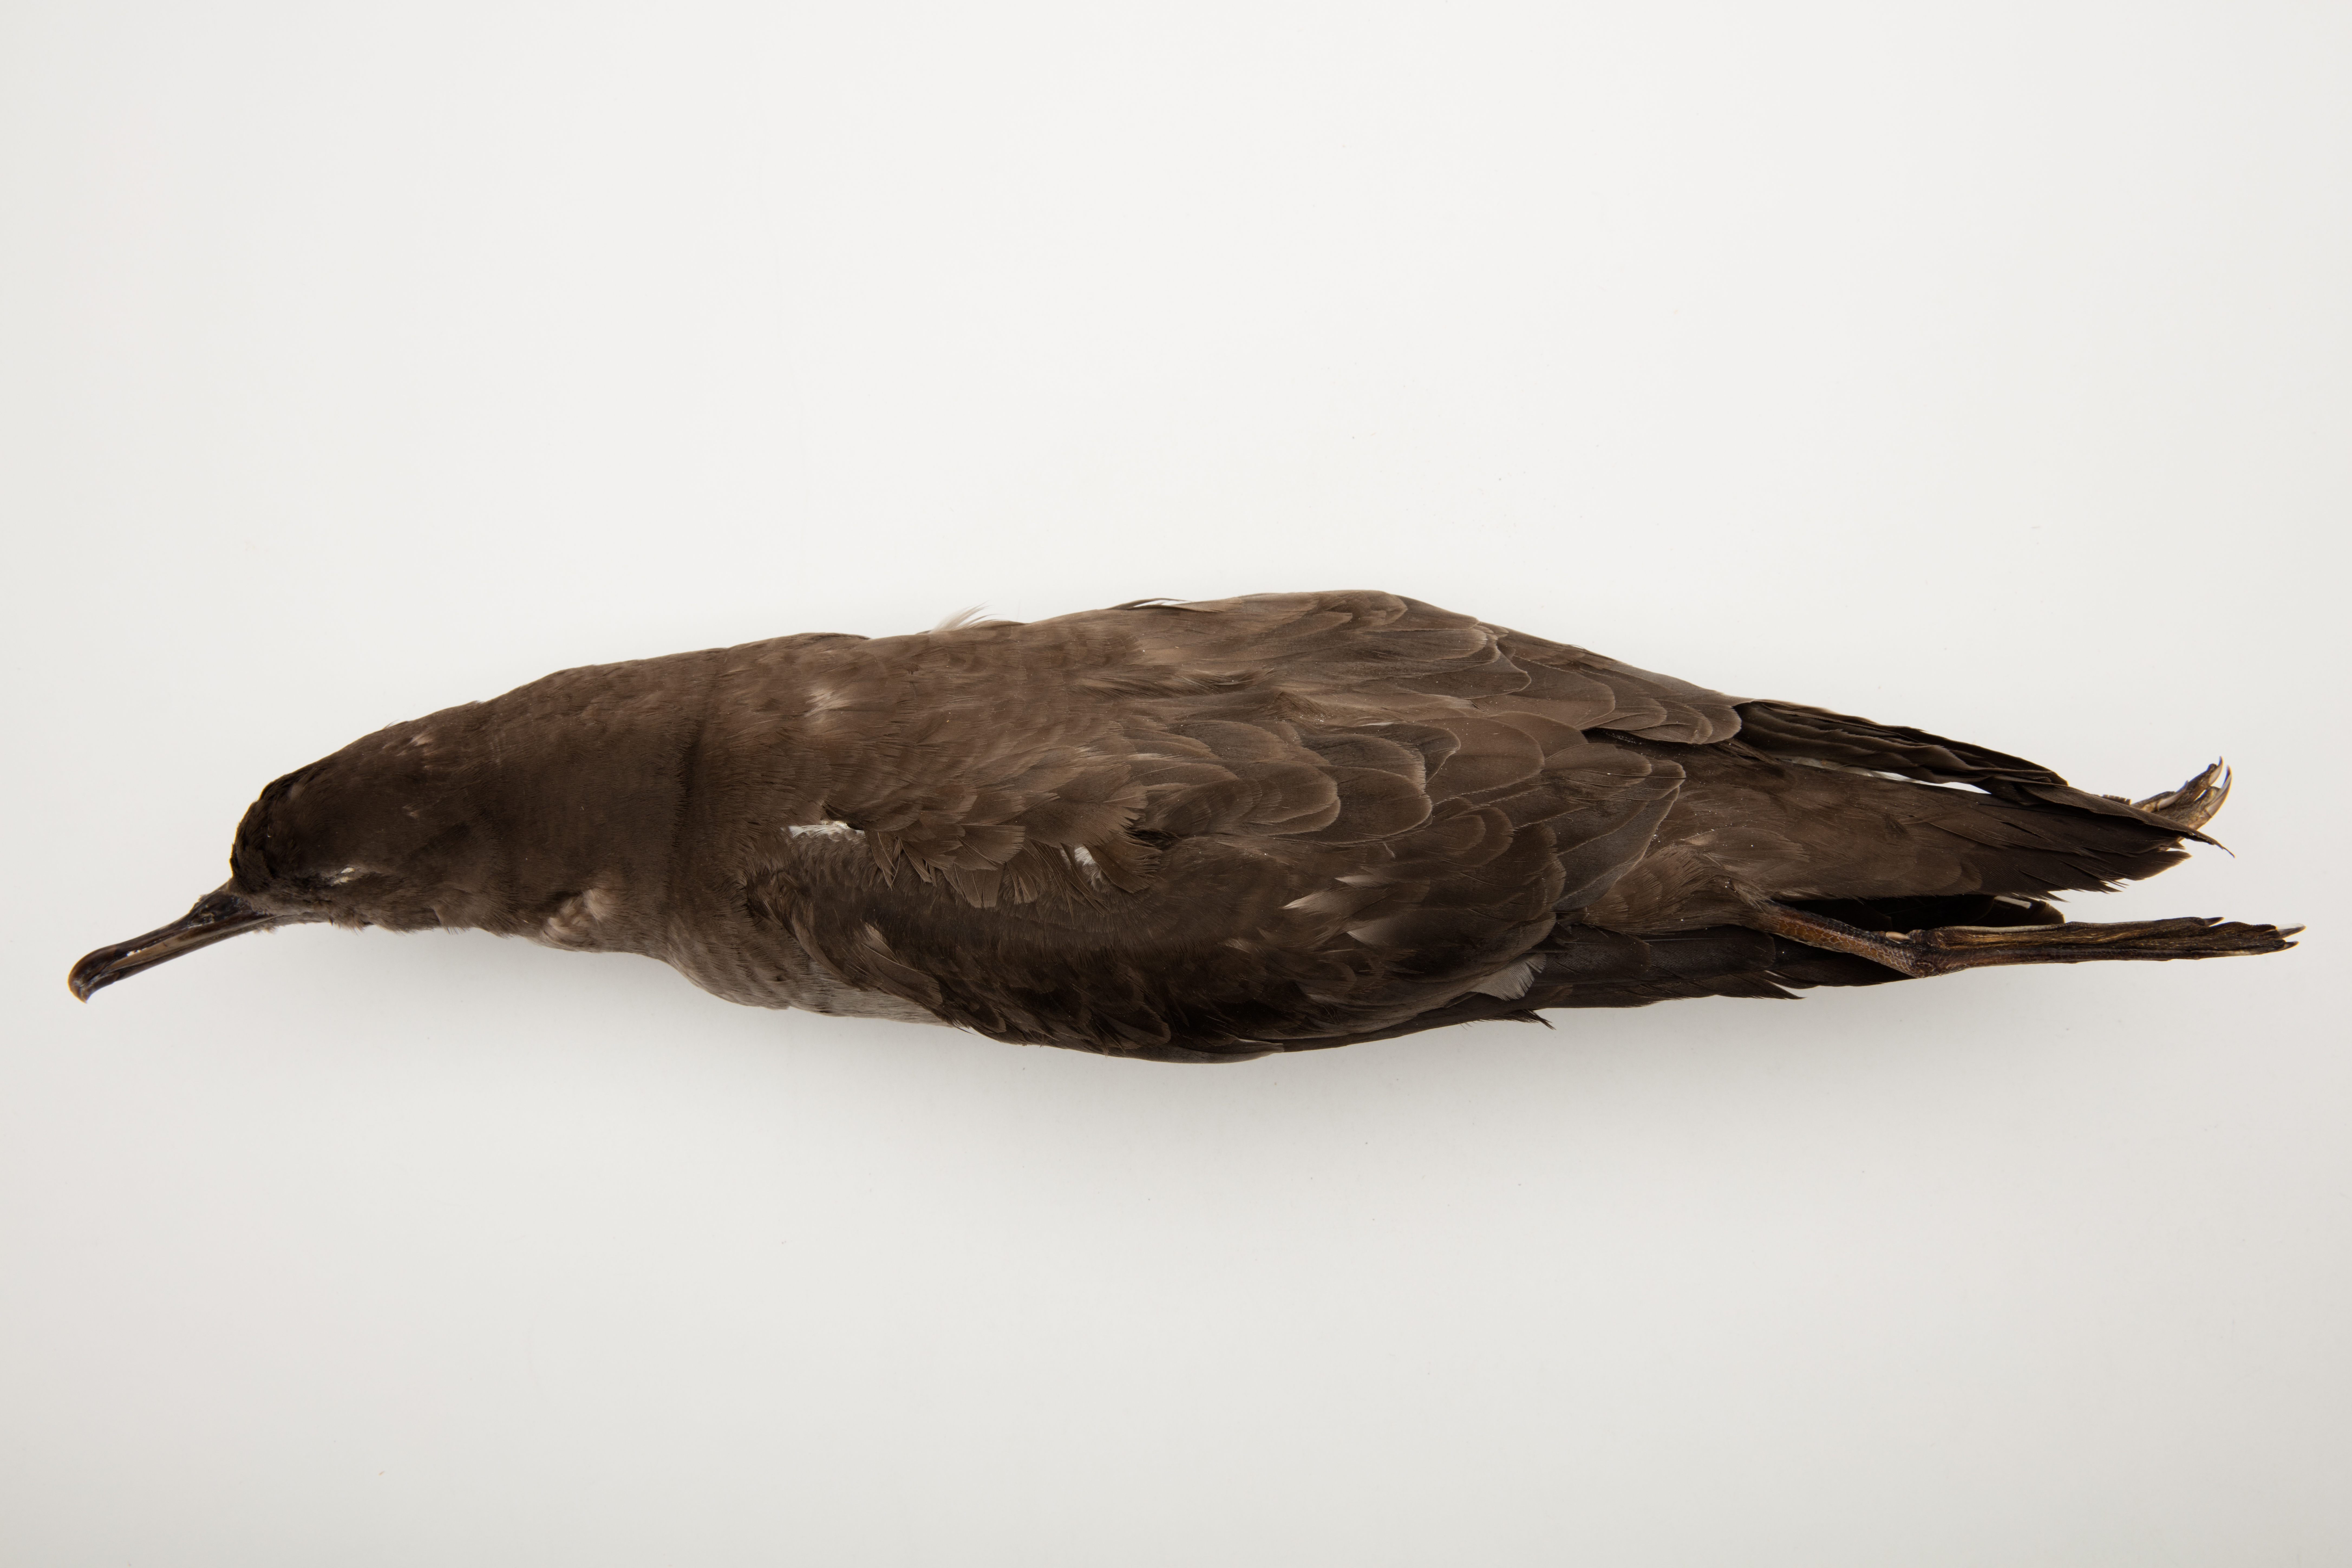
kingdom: Animalia
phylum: Chordata
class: Aves
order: Procellariiformes
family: Procellariidae
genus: Puffinus
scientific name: Puffinus griseus
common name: Sooty shearwater
